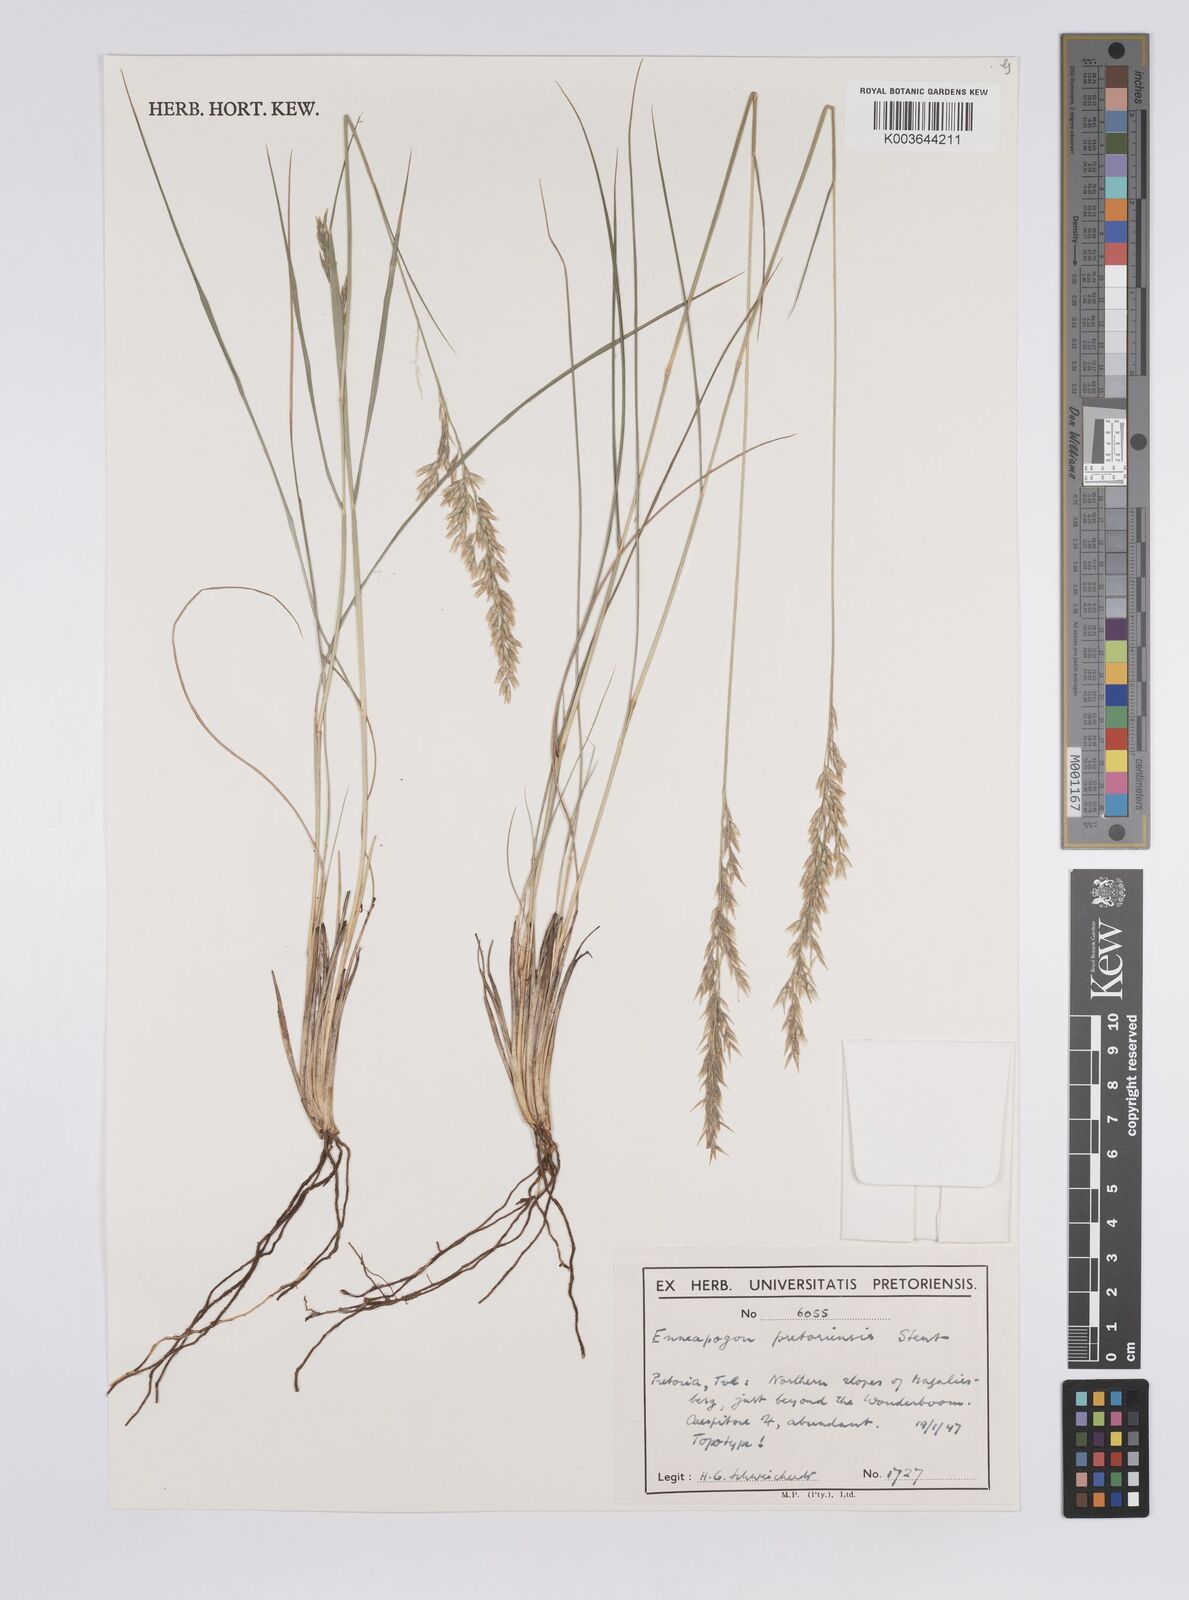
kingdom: Plantae
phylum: Tracheophyta
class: Liliopsida
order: Poales
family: Poaceae
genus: Enneapogon
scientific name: Enneapogon pretoriensis
